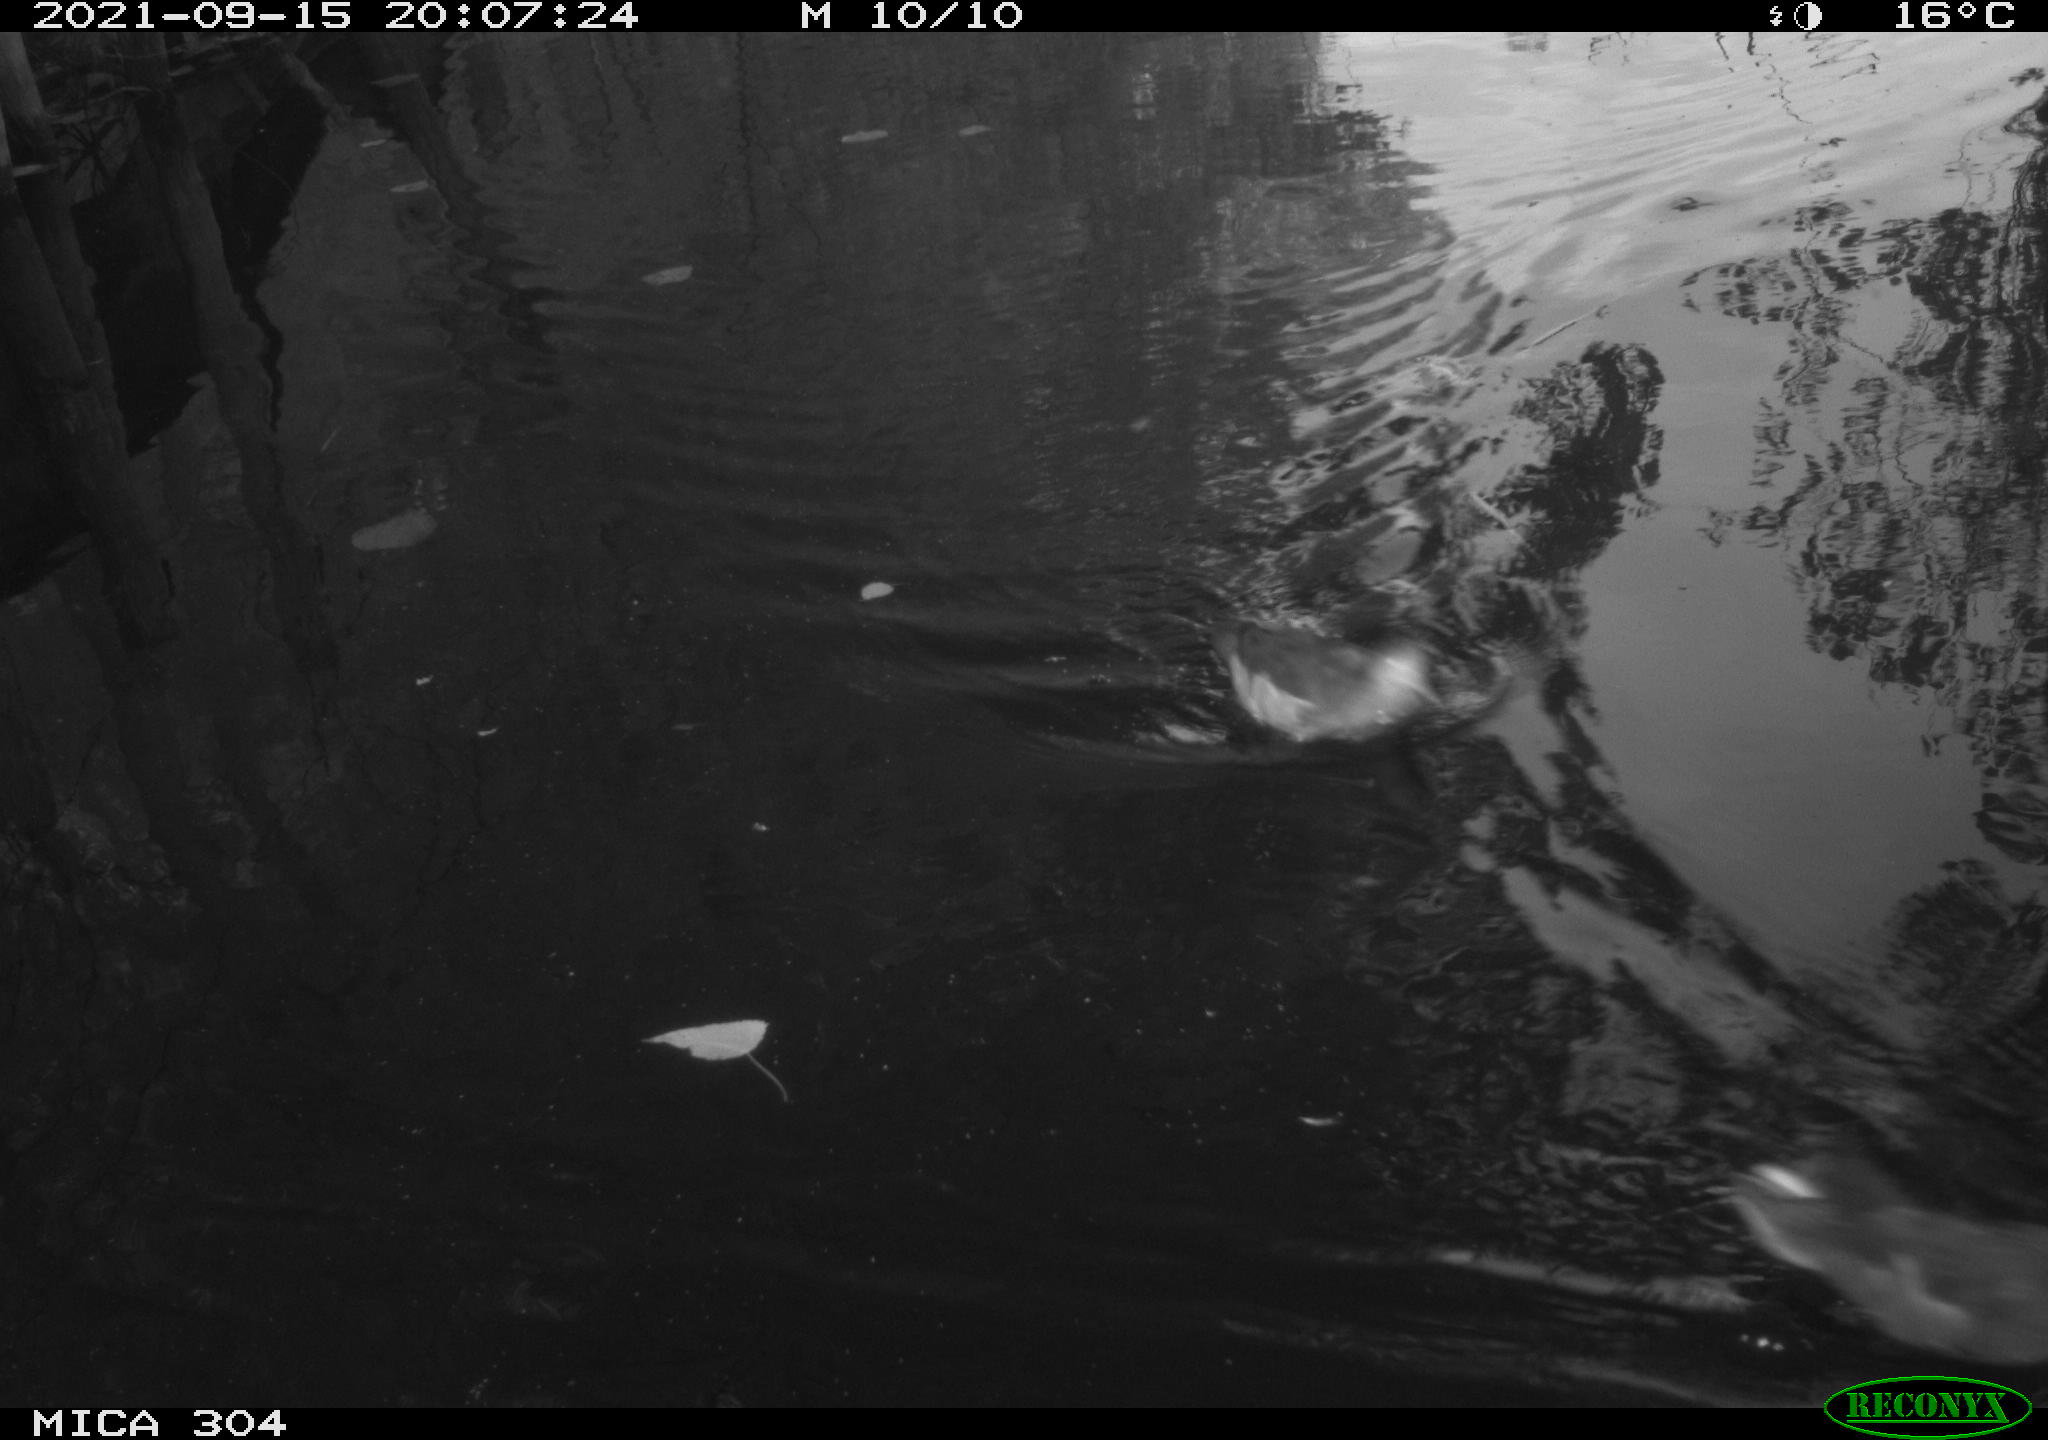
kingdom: Animalia
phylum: Chordata
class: Aves
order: Gruiformes
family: Rallidae
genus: Gallinula
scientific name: Gallinula chloropus
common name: Common moorhen
